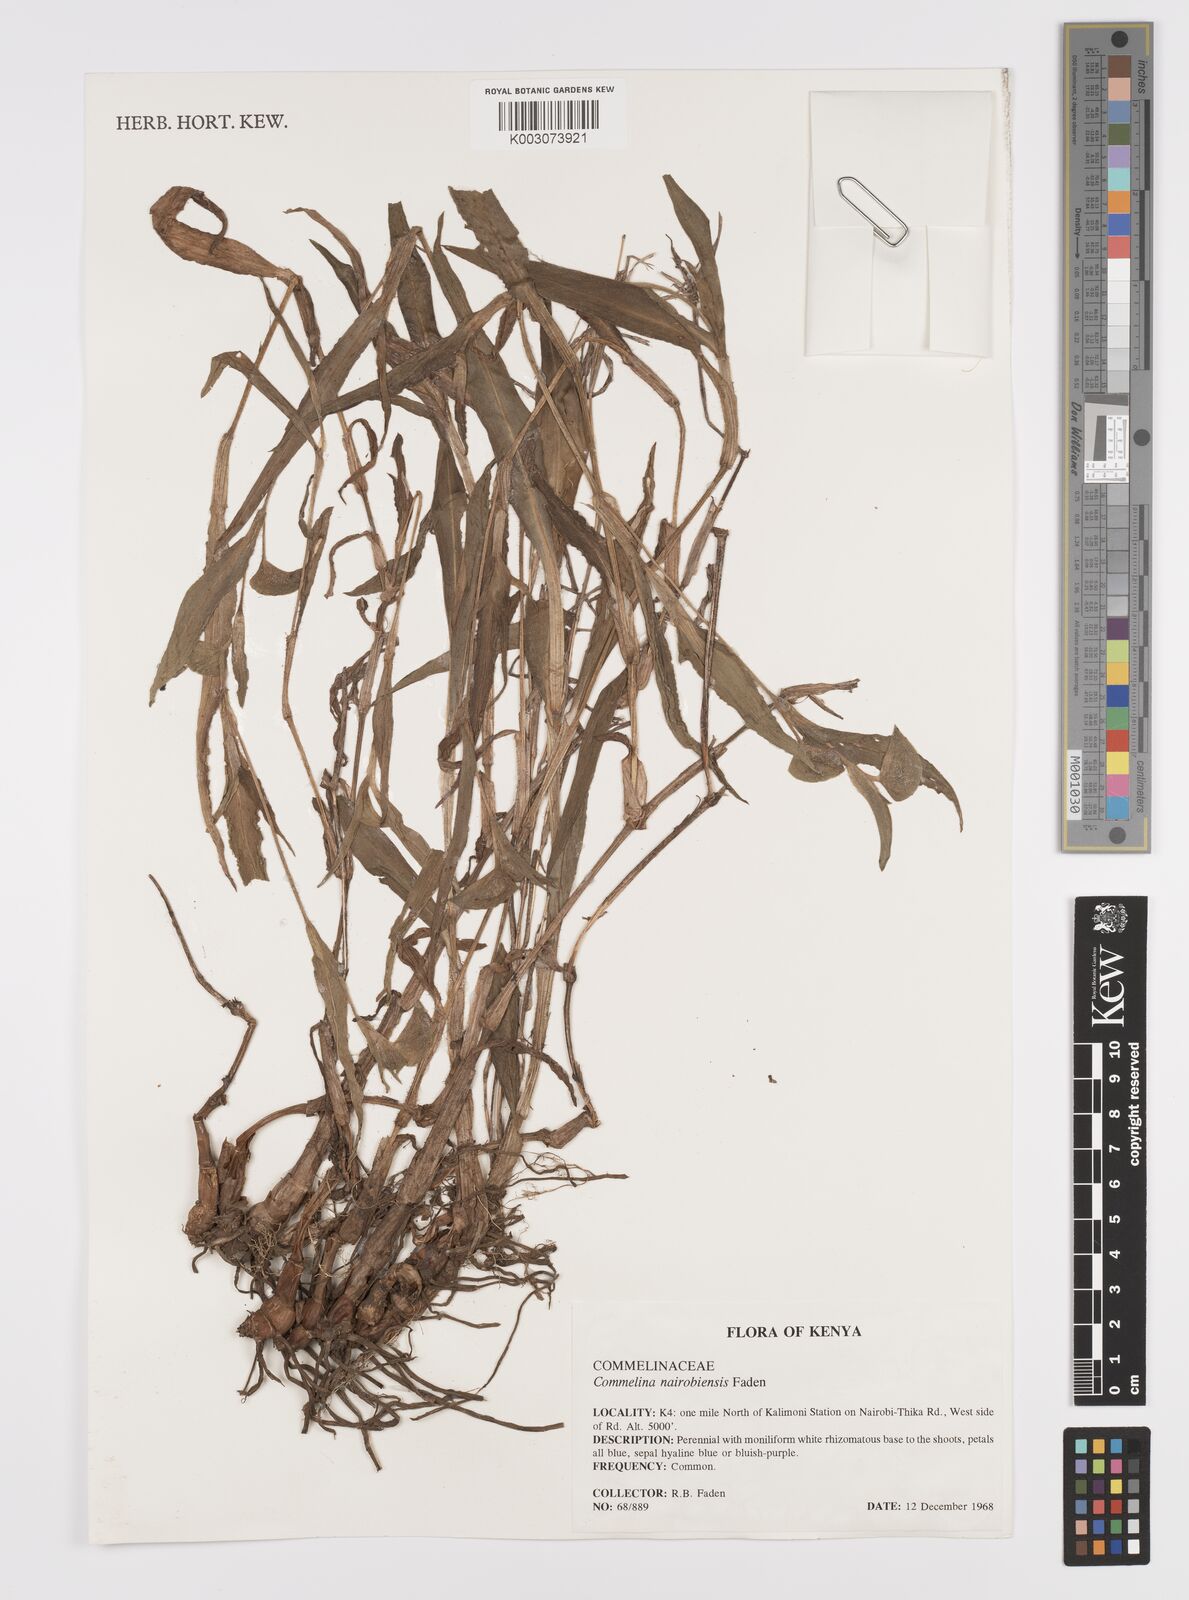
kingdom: Plantae
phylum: Tracheophyta
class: Liliopsida
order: Commelinales
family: Commelinaceae
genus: Commelina
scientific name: Commelina eckloniana
